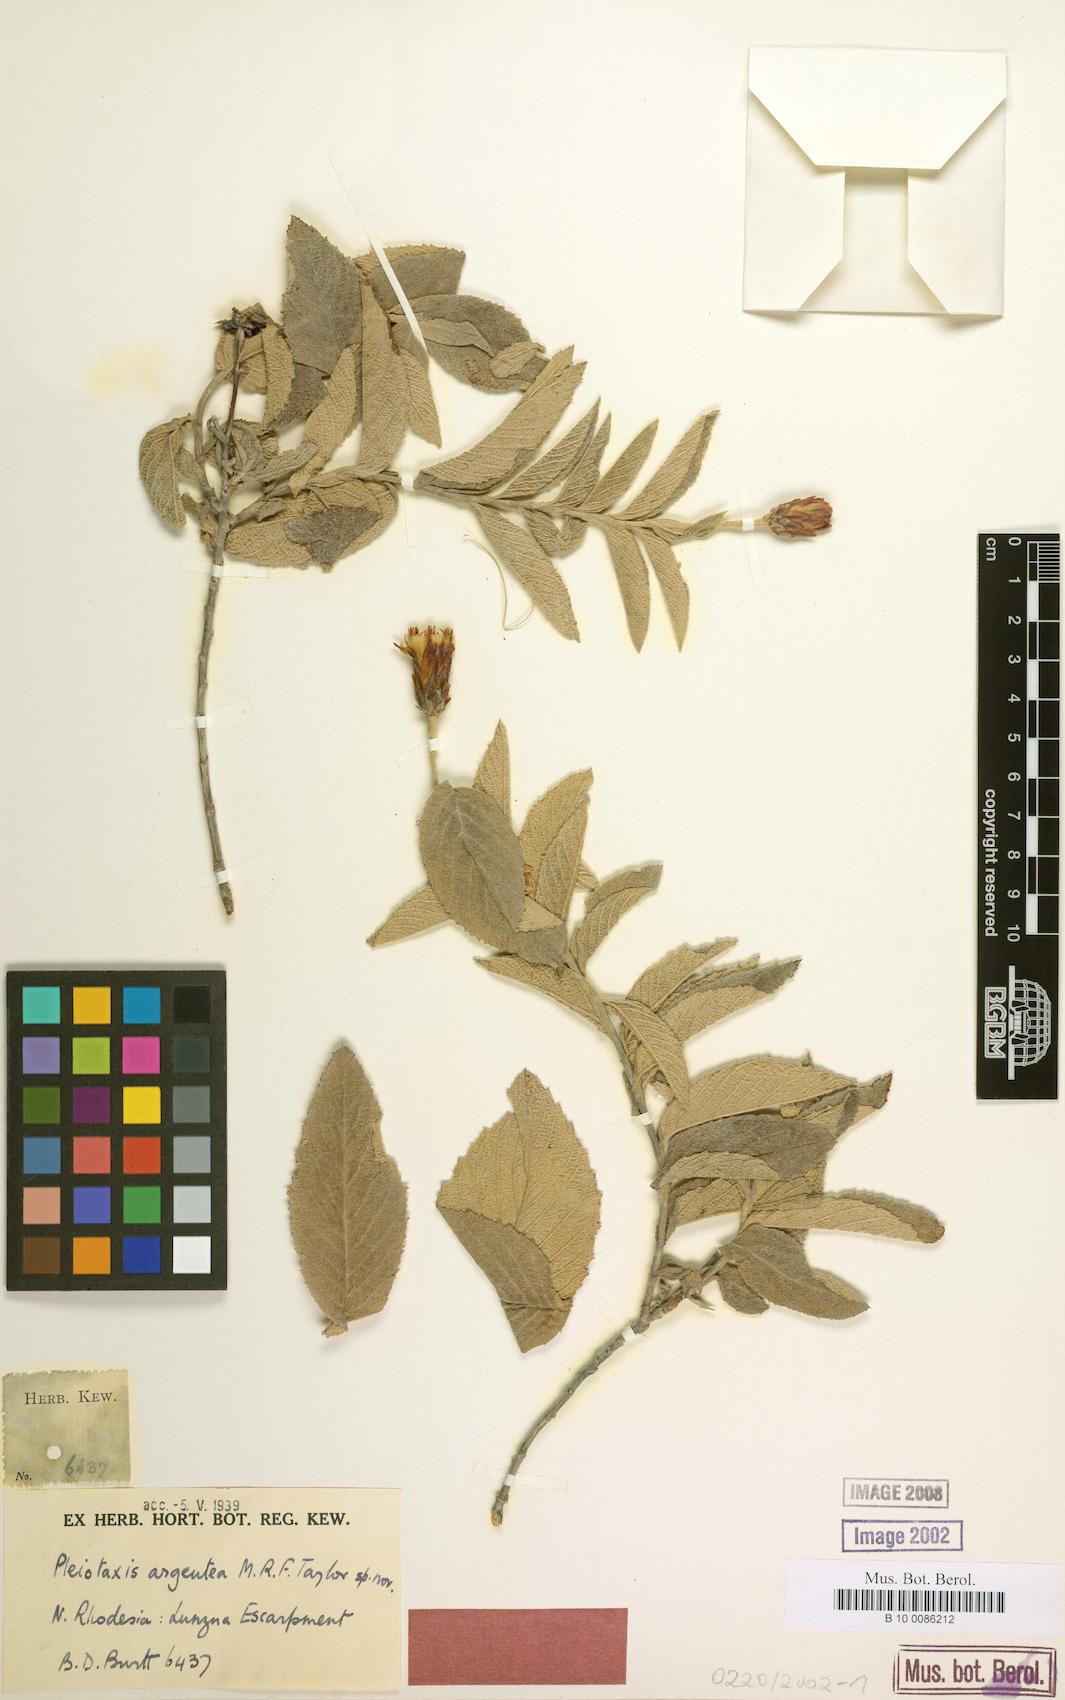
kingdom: Plantae
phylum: Tracheophyta
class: Magnoliopsida
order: Asterales
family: Asteraceae
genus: Pleiotaxis
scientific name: Pleiotaxis huillensis
